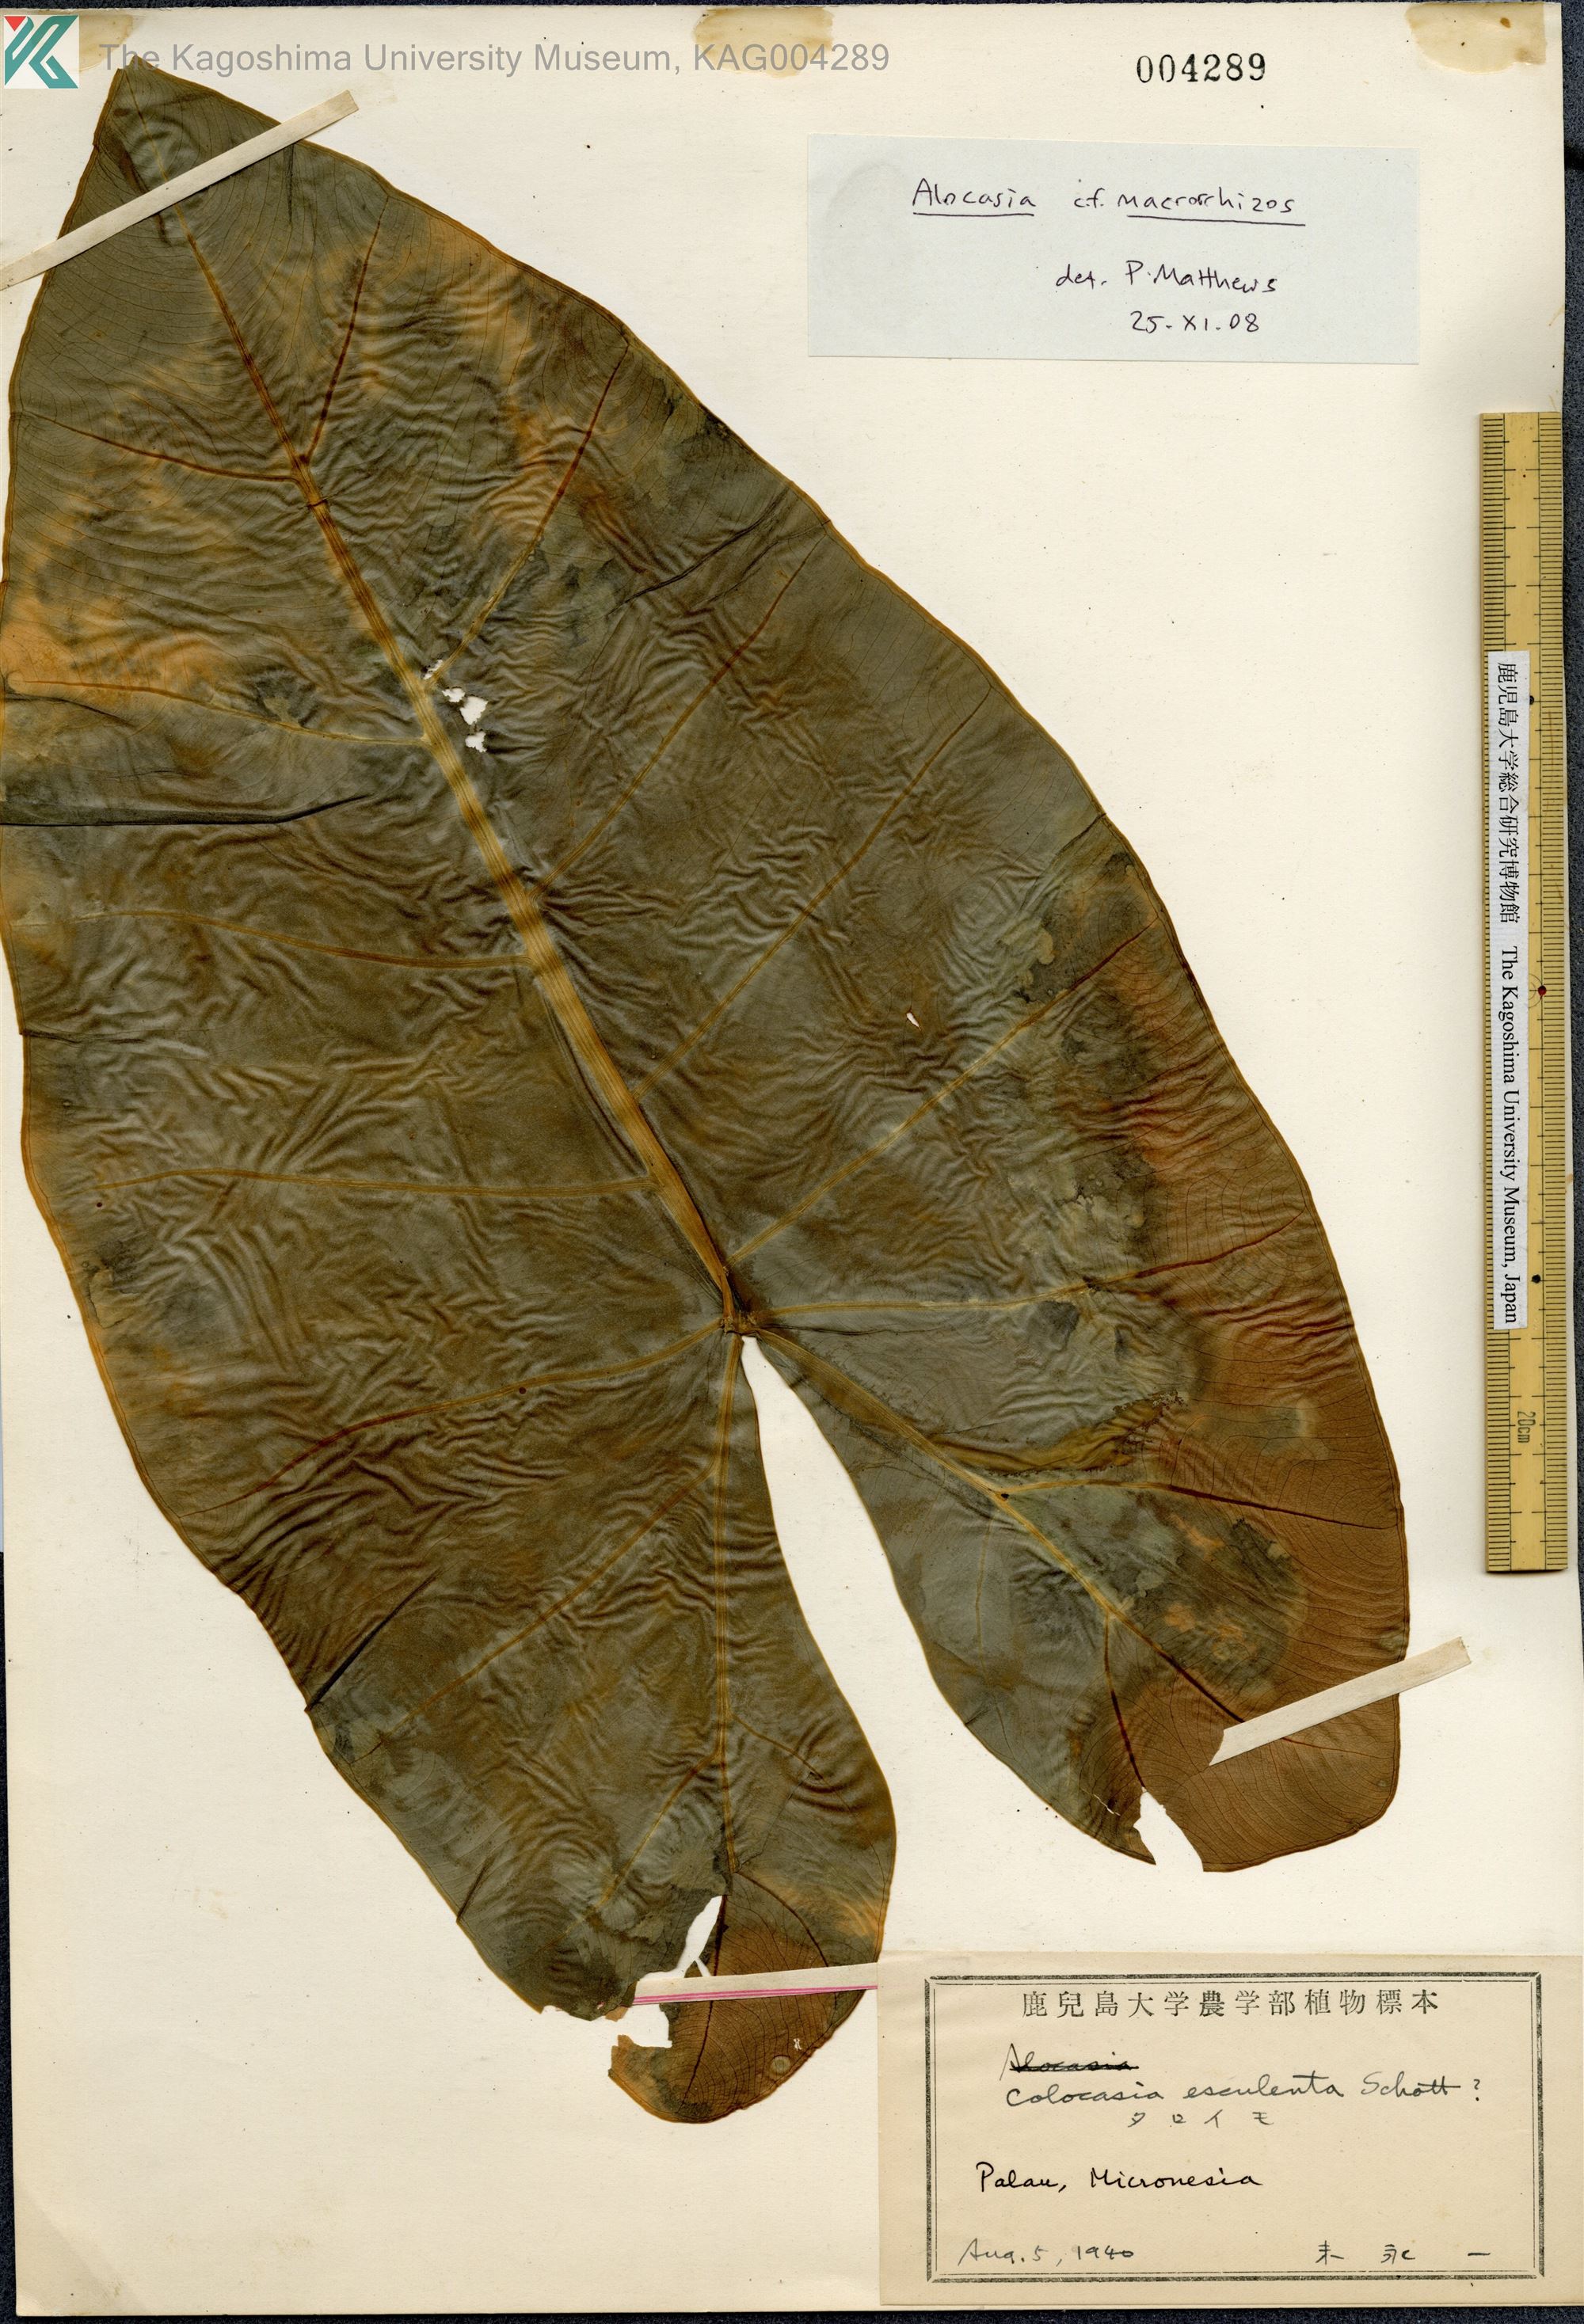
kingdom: Plantae
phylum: Tracheophyta
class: Liliopsida
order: Alismatales
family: Araceae
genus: Alocasia
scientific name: Alocasia
